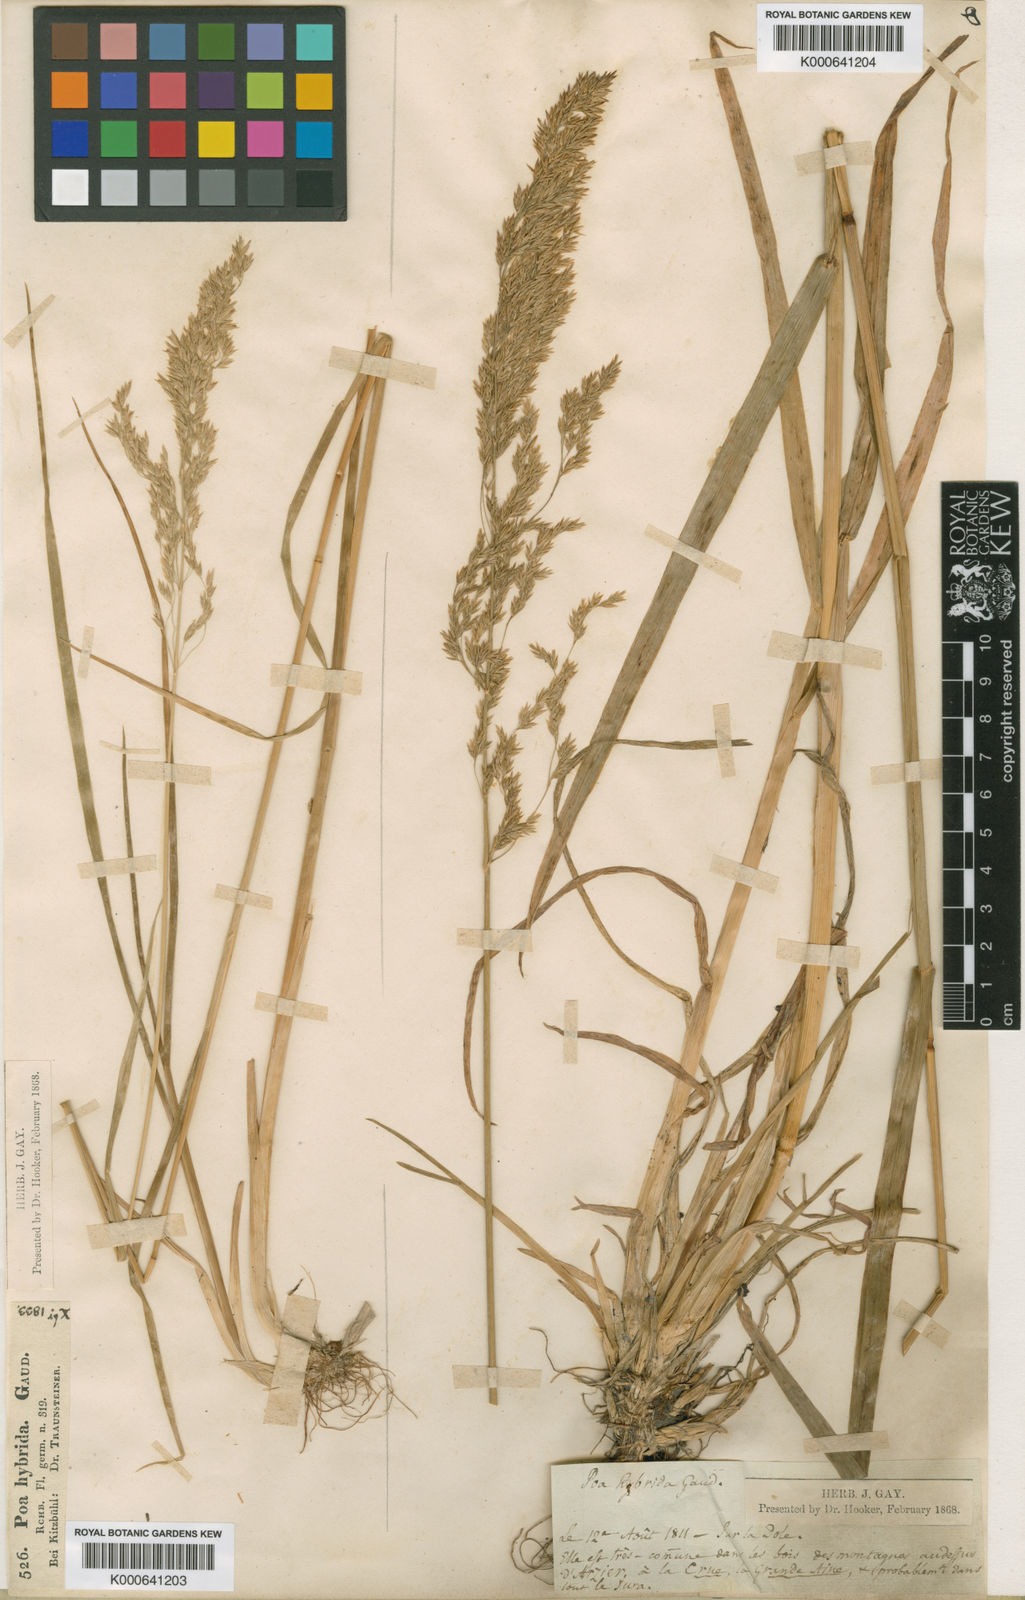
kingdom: Plantae
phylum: Tracheophyta
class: Liliopsida
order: Poales
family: Poaceae
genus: Poa
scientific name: Poa hybrida
